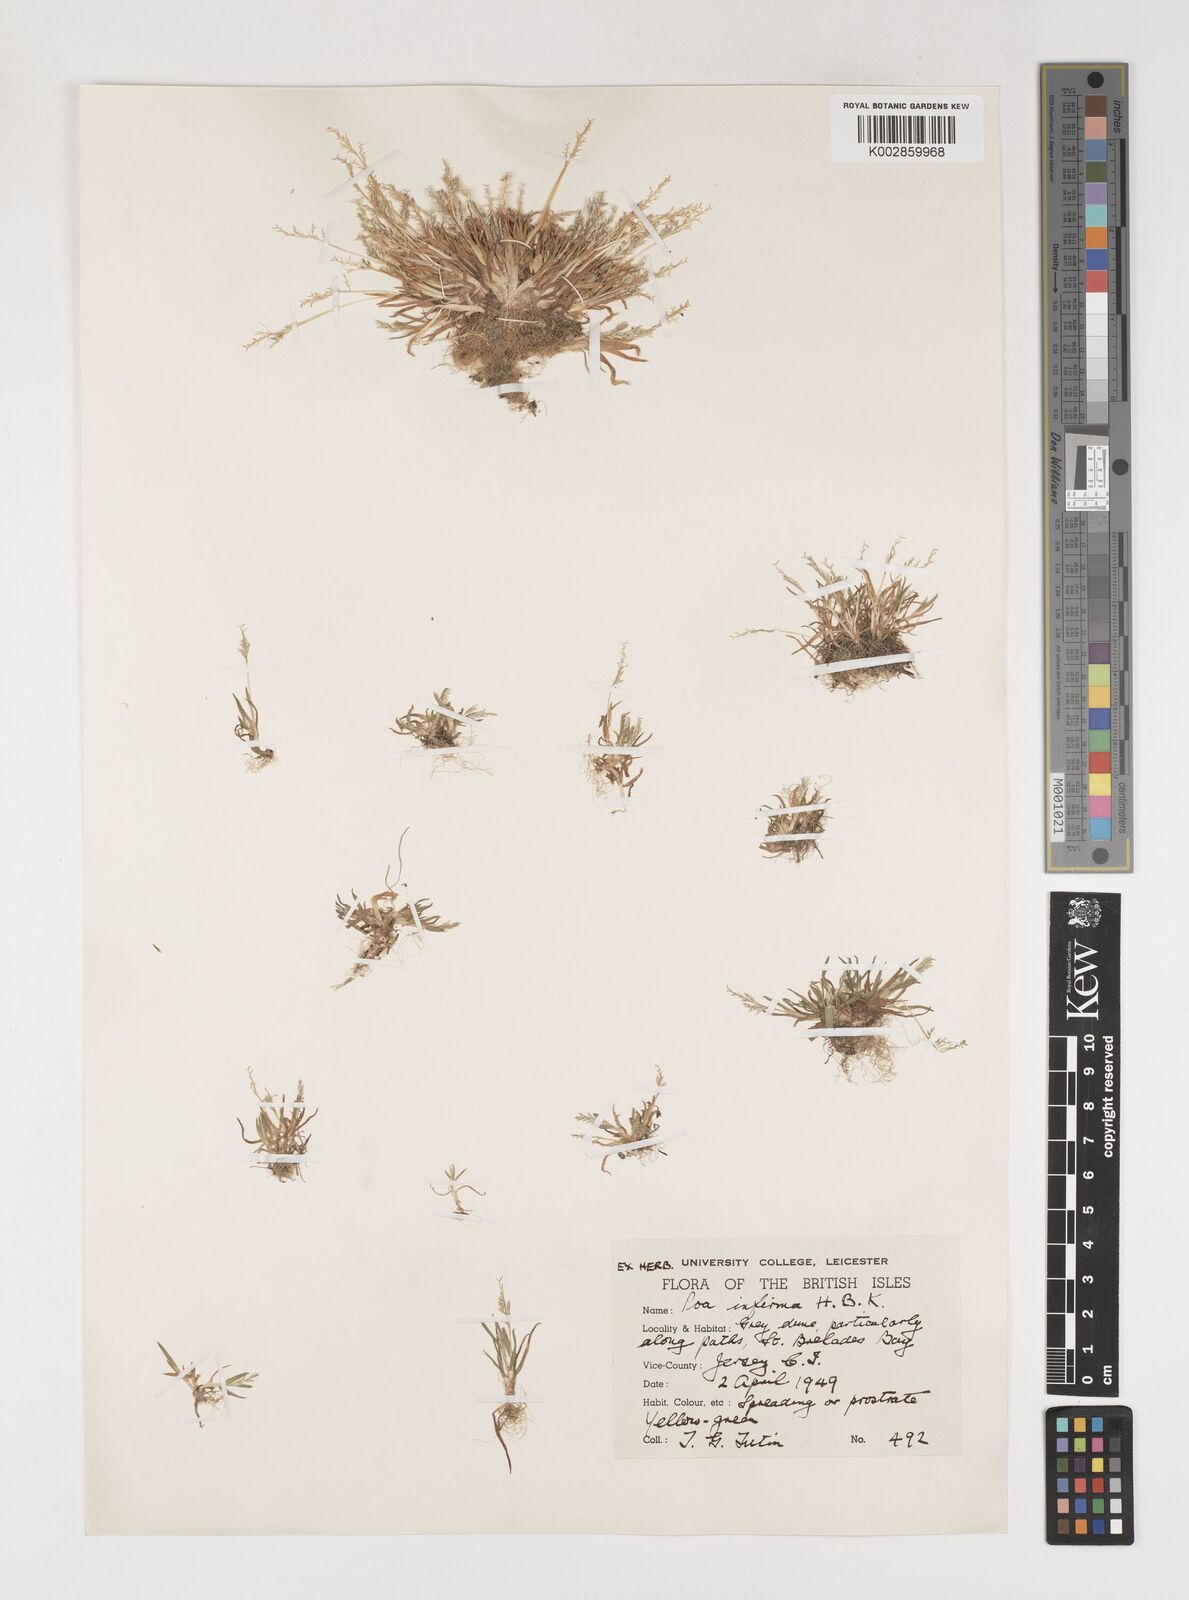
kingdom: Plantae
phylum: Tracheophyta
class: Liliopsida
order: Poales
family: Poaceae
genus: Poa
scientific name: Poa infirma
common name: Weak bluegrass
